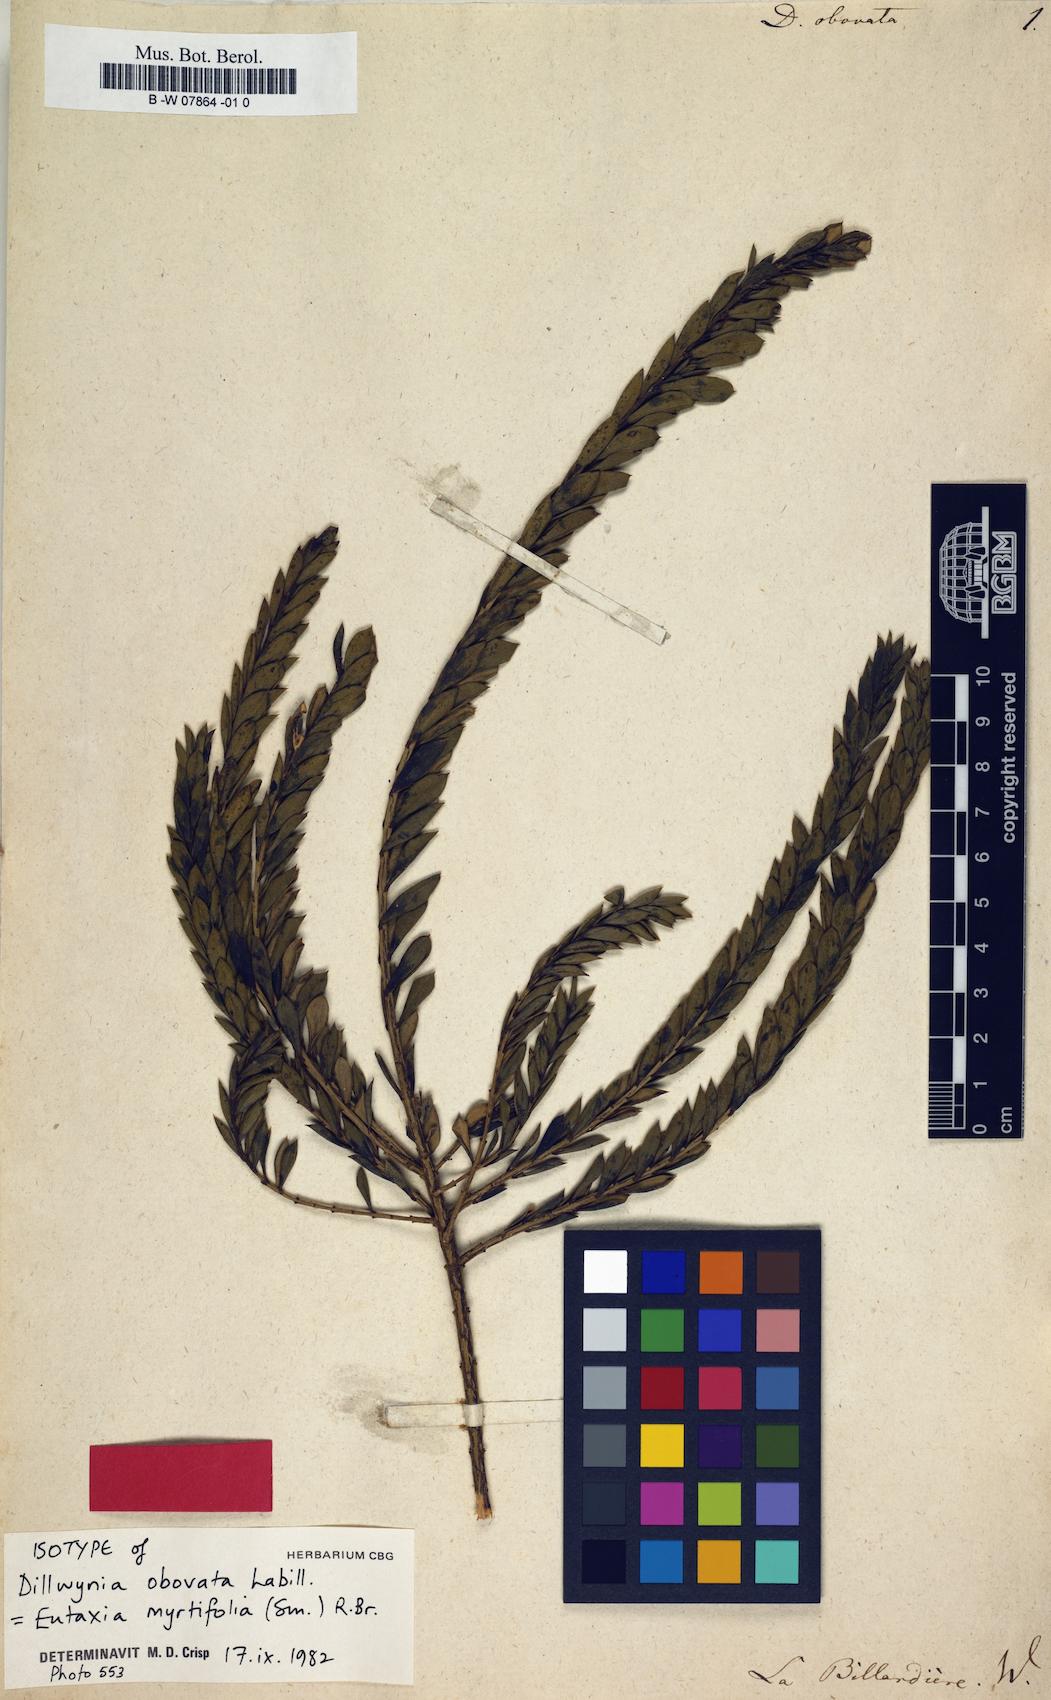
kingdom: Plantae
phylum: Tracheophyta
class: Magnoliopsida
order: Fabales
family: Fabaceae
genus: Eutaxia
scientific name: Eutaxia myrtifolia
